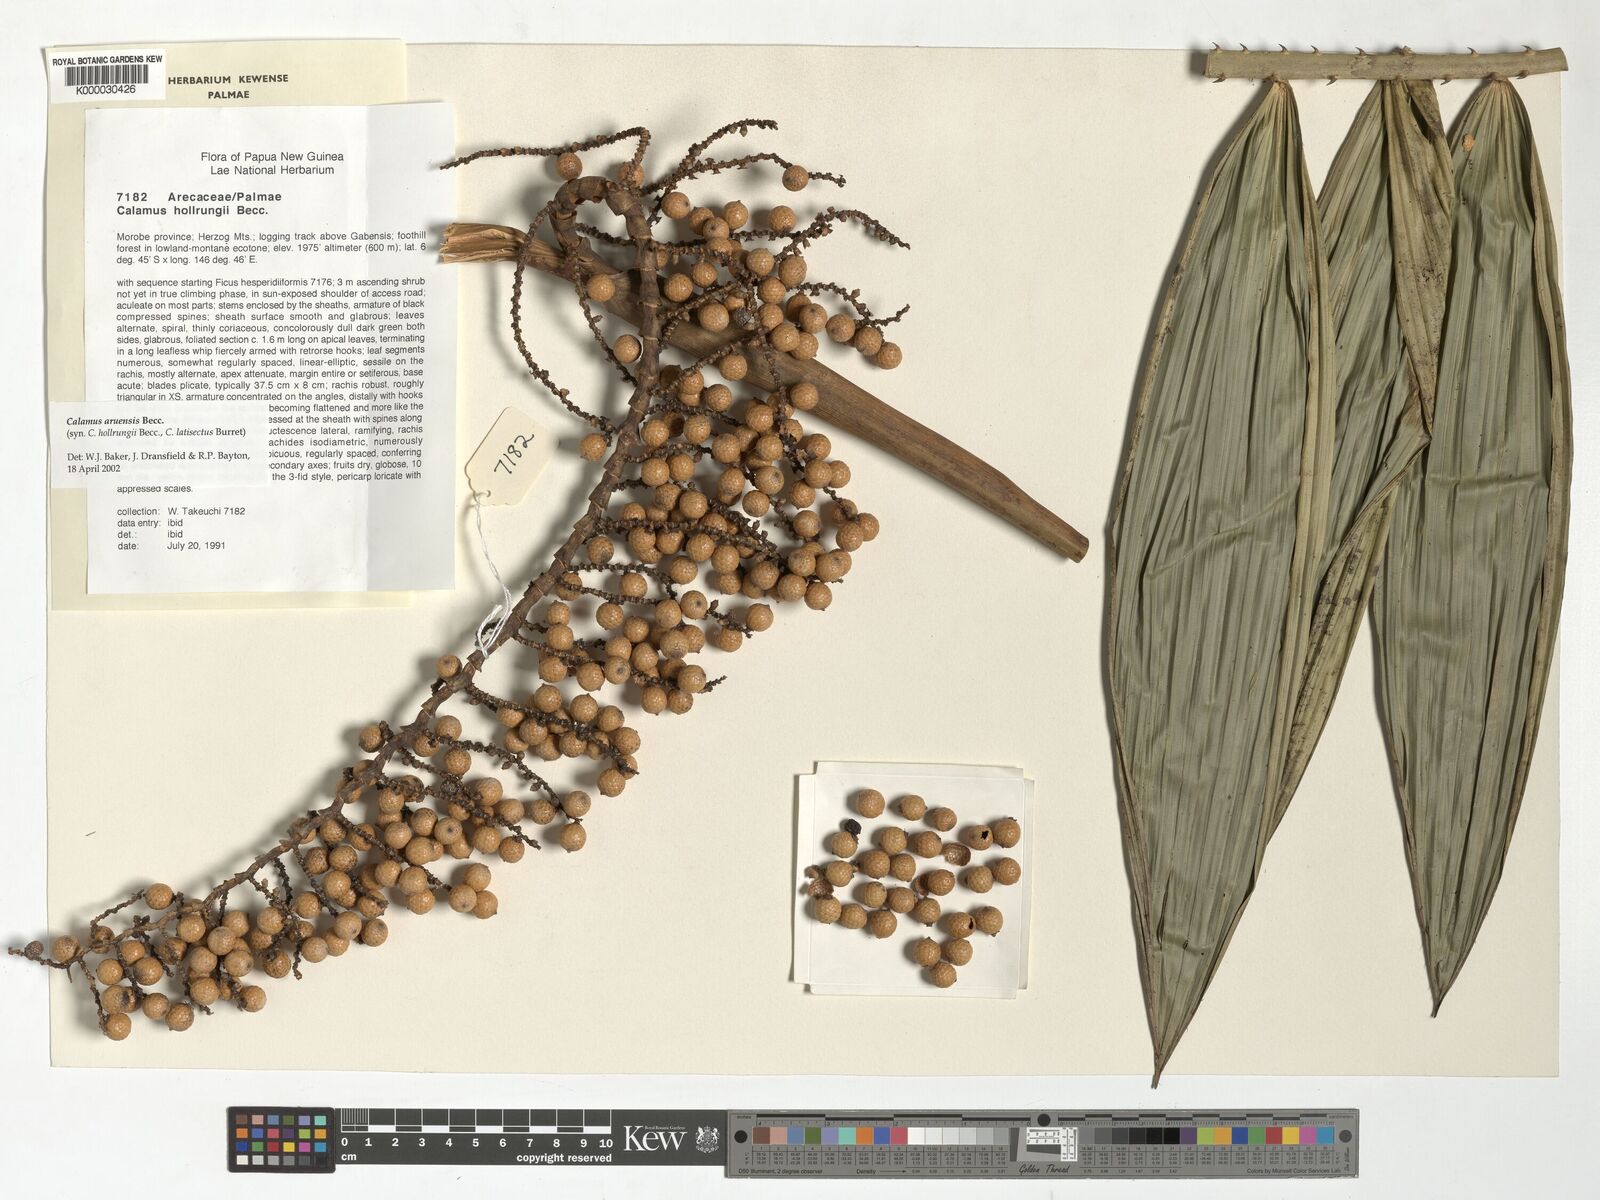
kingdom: Plantae
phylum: Tracheophyta
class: Liliopsida
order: Arecales
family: Arecaceae
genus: Calamus
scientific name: Calamus aruensis
